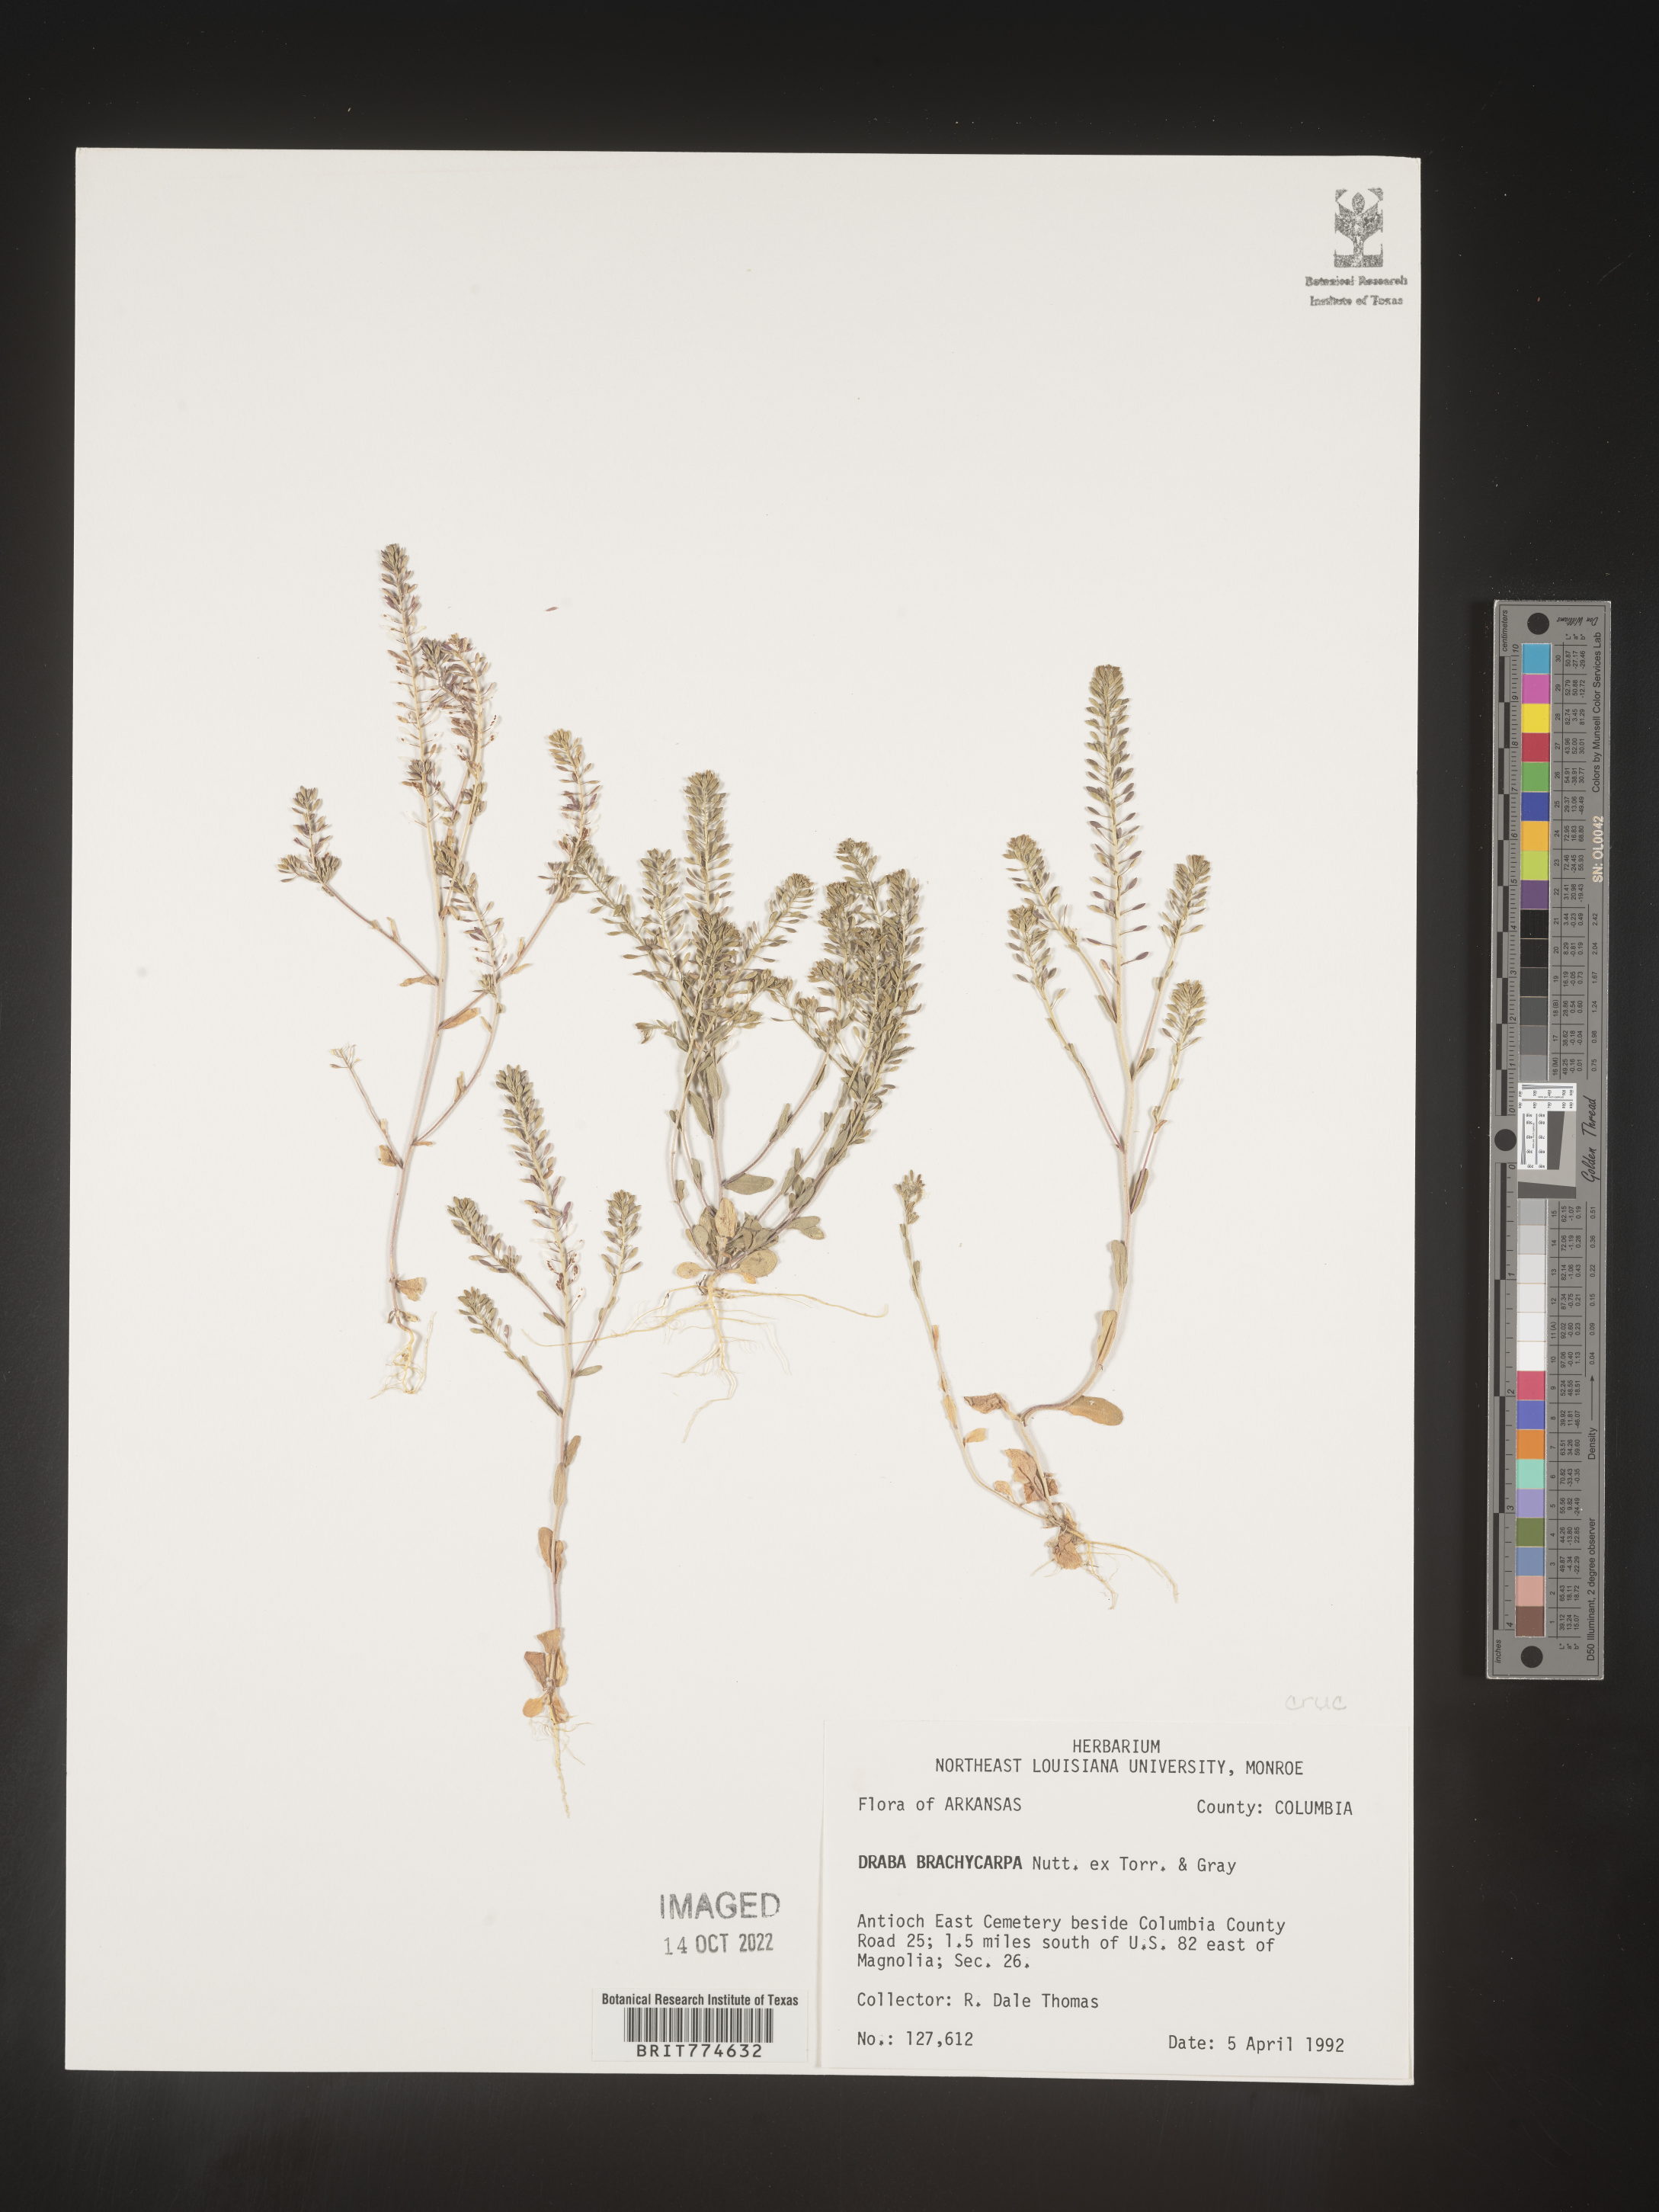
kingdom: Plantae
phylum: Tracheophyta
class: Magnoliopsida
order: Brassicales
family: Brassicaceae
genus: Abdra
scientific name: Abdra brachycarpa
